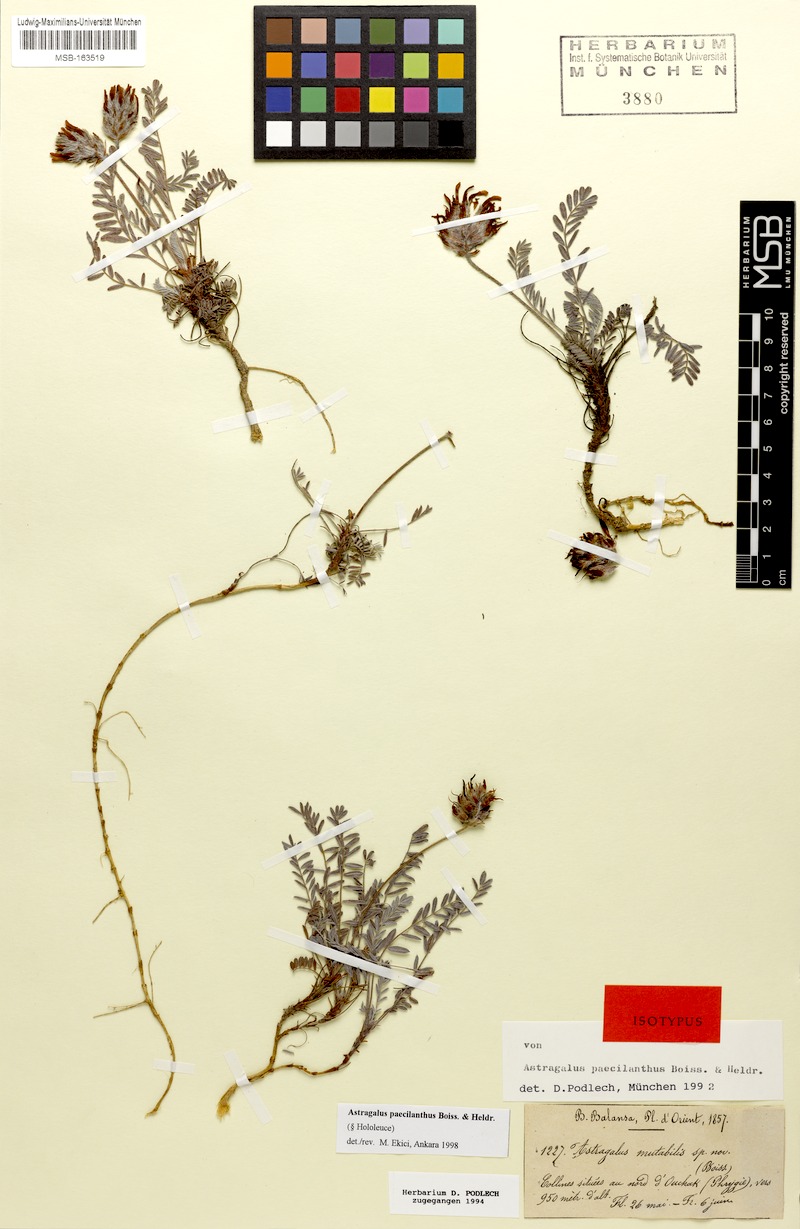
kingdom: Plantae
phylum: Tracheophyta
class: Magnoliopsida
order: Fabales
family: Fabaceae
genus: Astragalus
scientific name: Astragalus sibthorpianus
